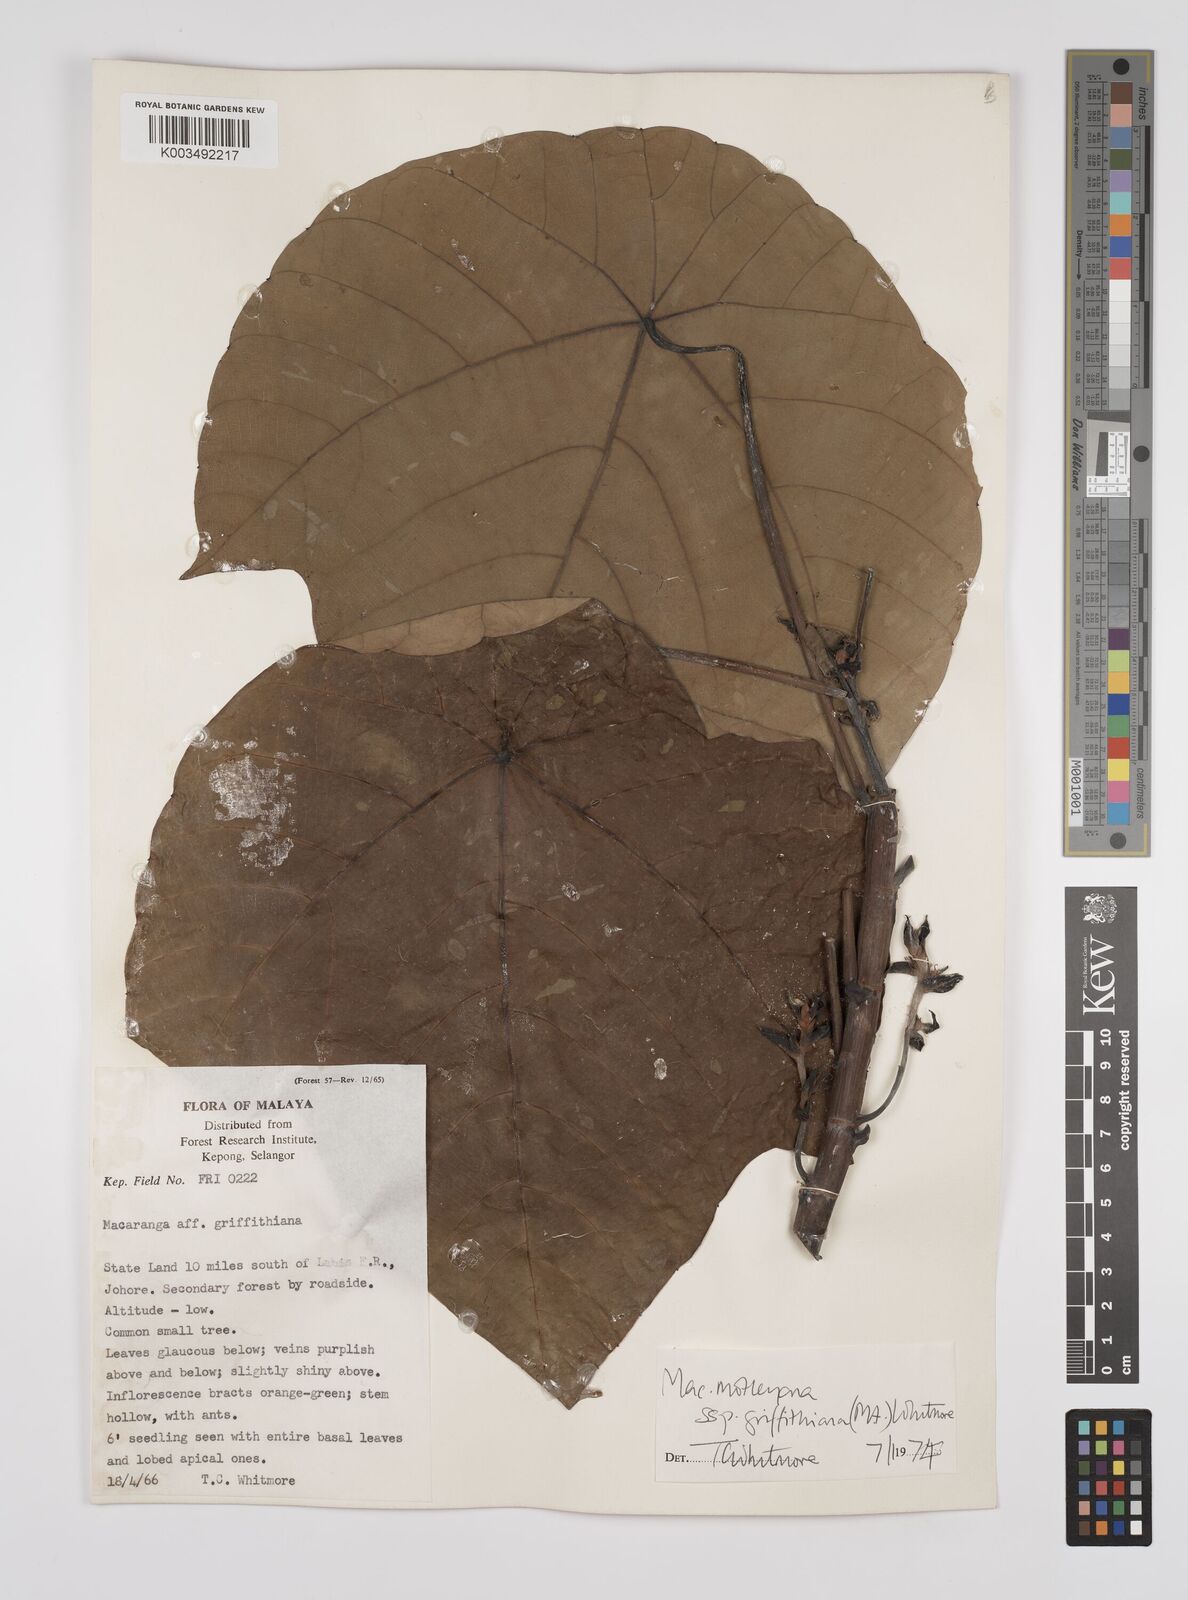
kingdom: Plantae
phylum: Tracheophyta
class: Magnoliopsida
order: Malpighiales
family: Euphorbiaceae
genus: Macaranga
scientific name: Macaranga griffithiana
